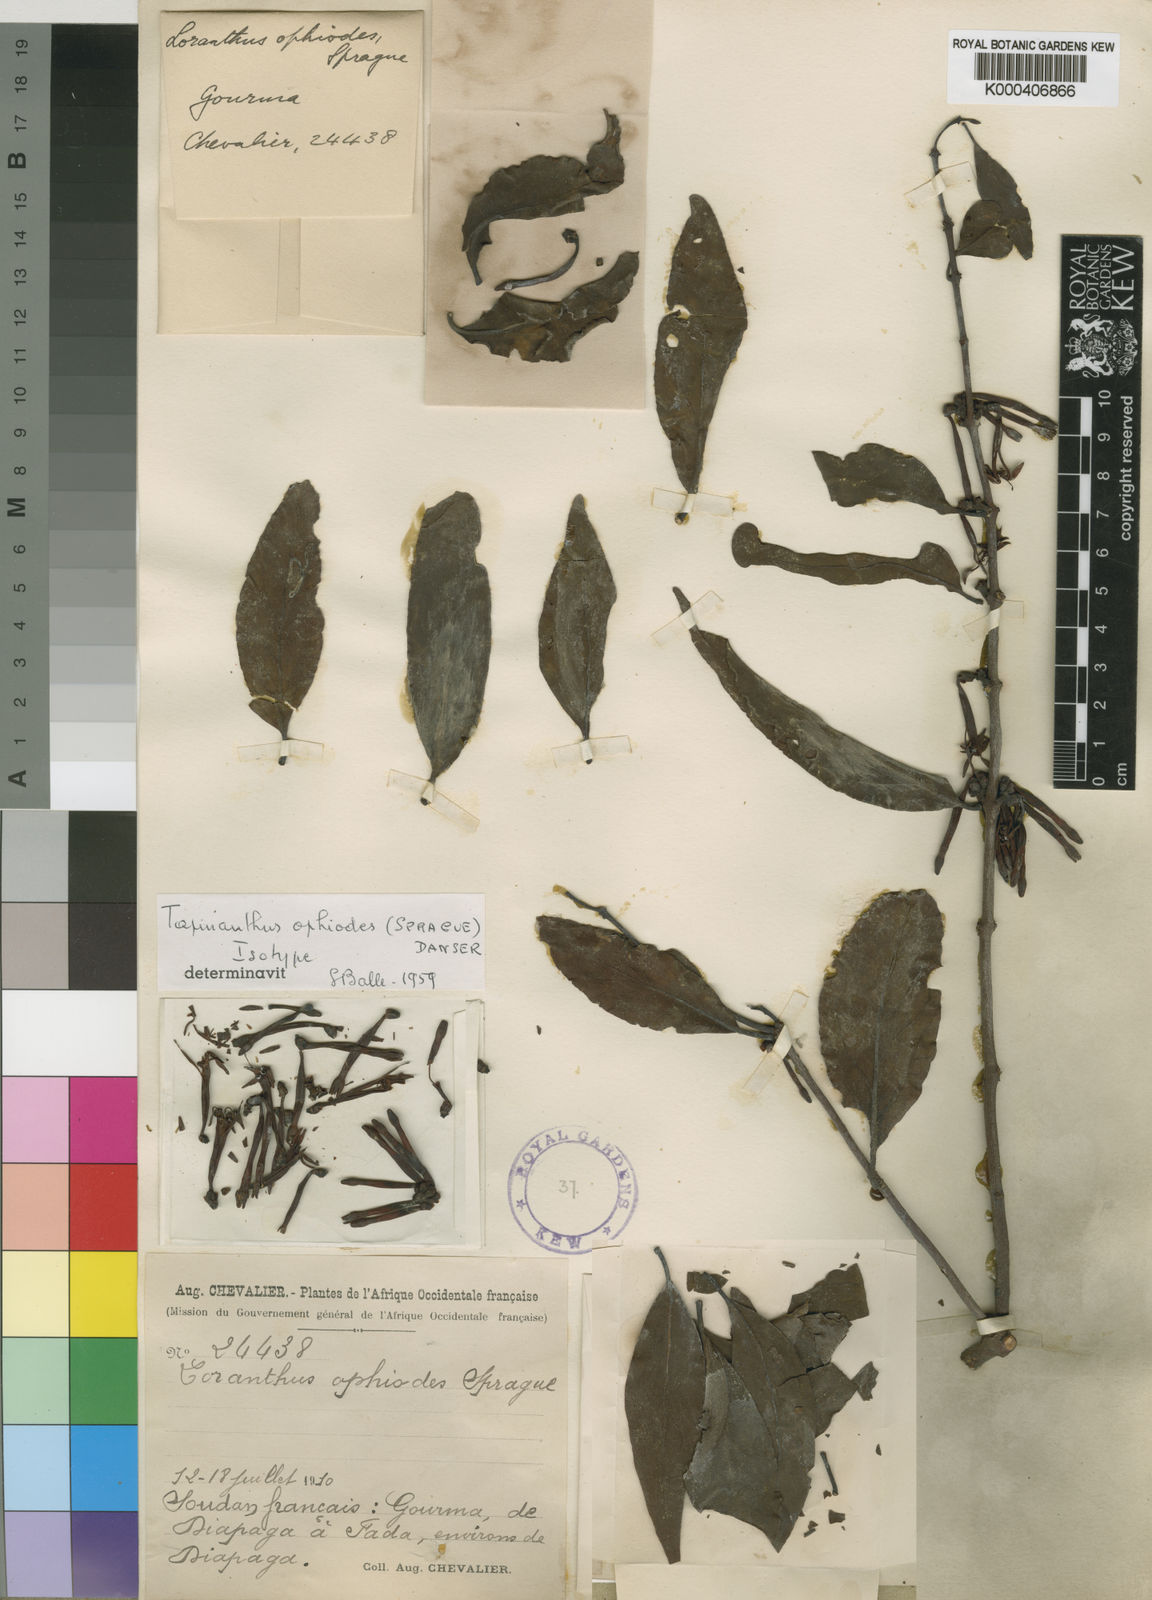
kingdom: Plantae
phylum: Tracheophyta
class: Magnoliopsida
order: Santalales
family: Loranthaceae
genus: Tapinanthus
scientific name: Tapinanthus ophiodes
